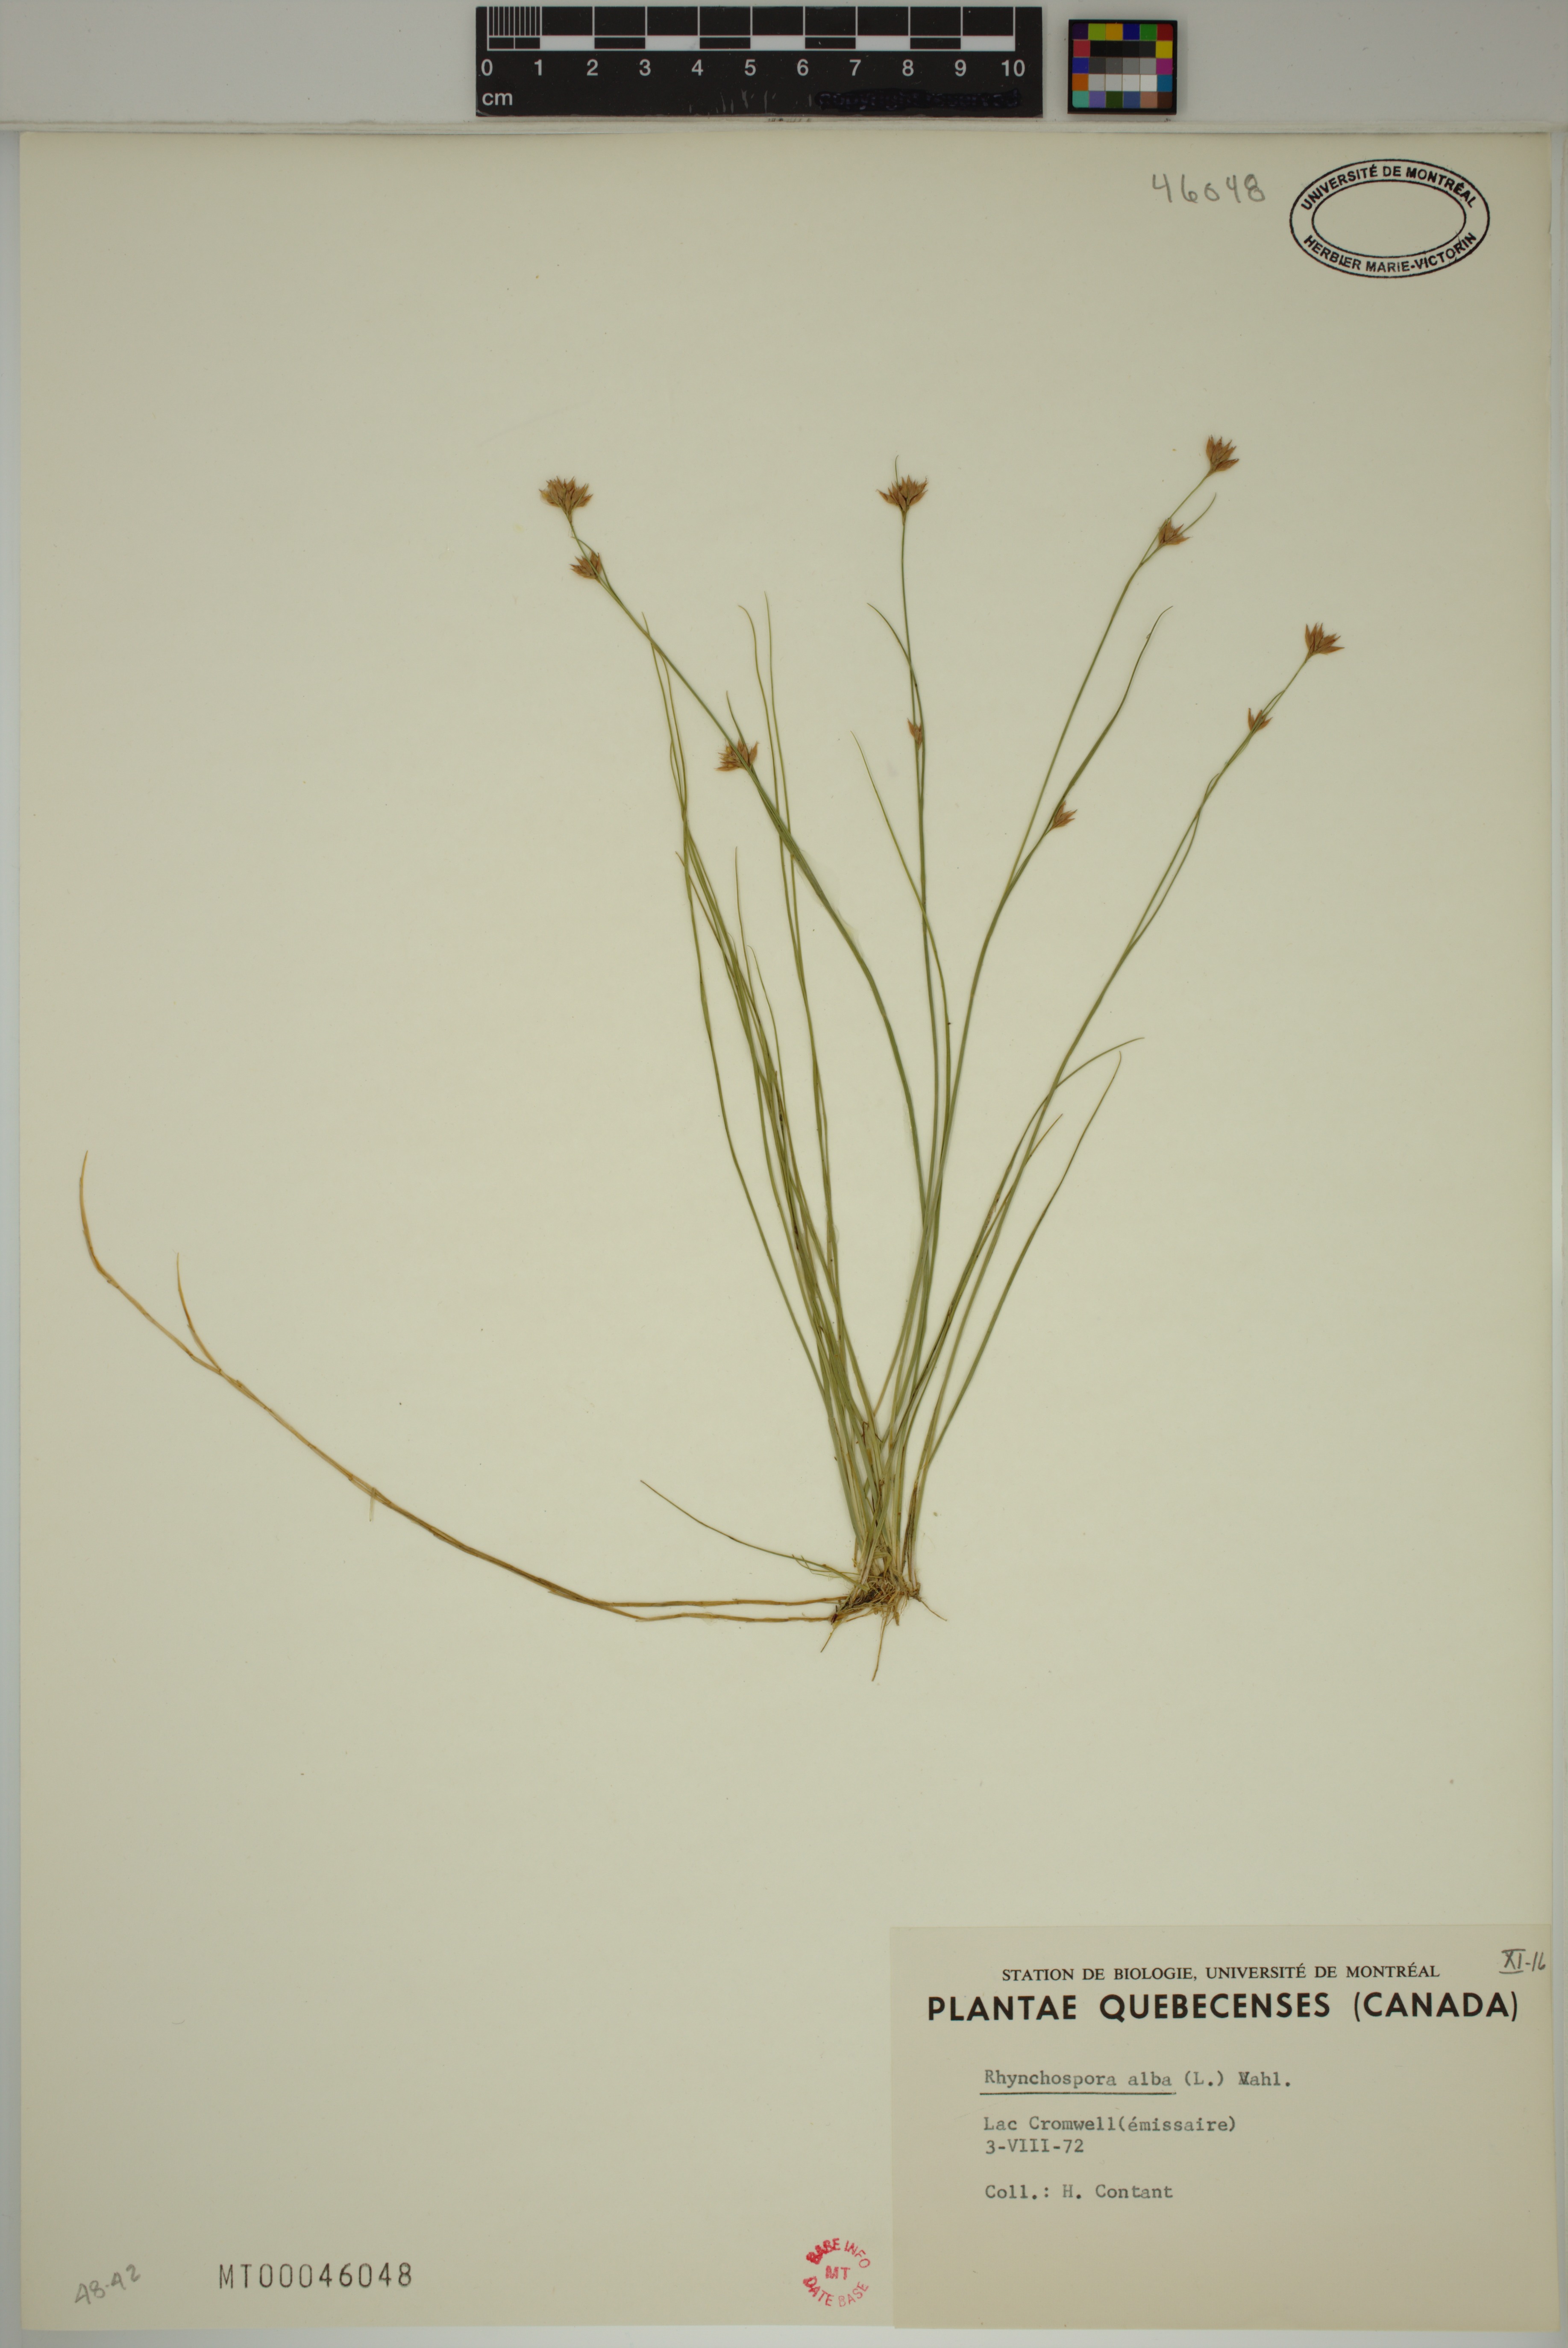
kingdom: Plantae
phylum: Tracheophyta
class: Liliopsida
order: Poales
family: Cyperaceae
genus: Rhynchospora
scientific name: Rhynchospora alba
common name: White beak-sedge
